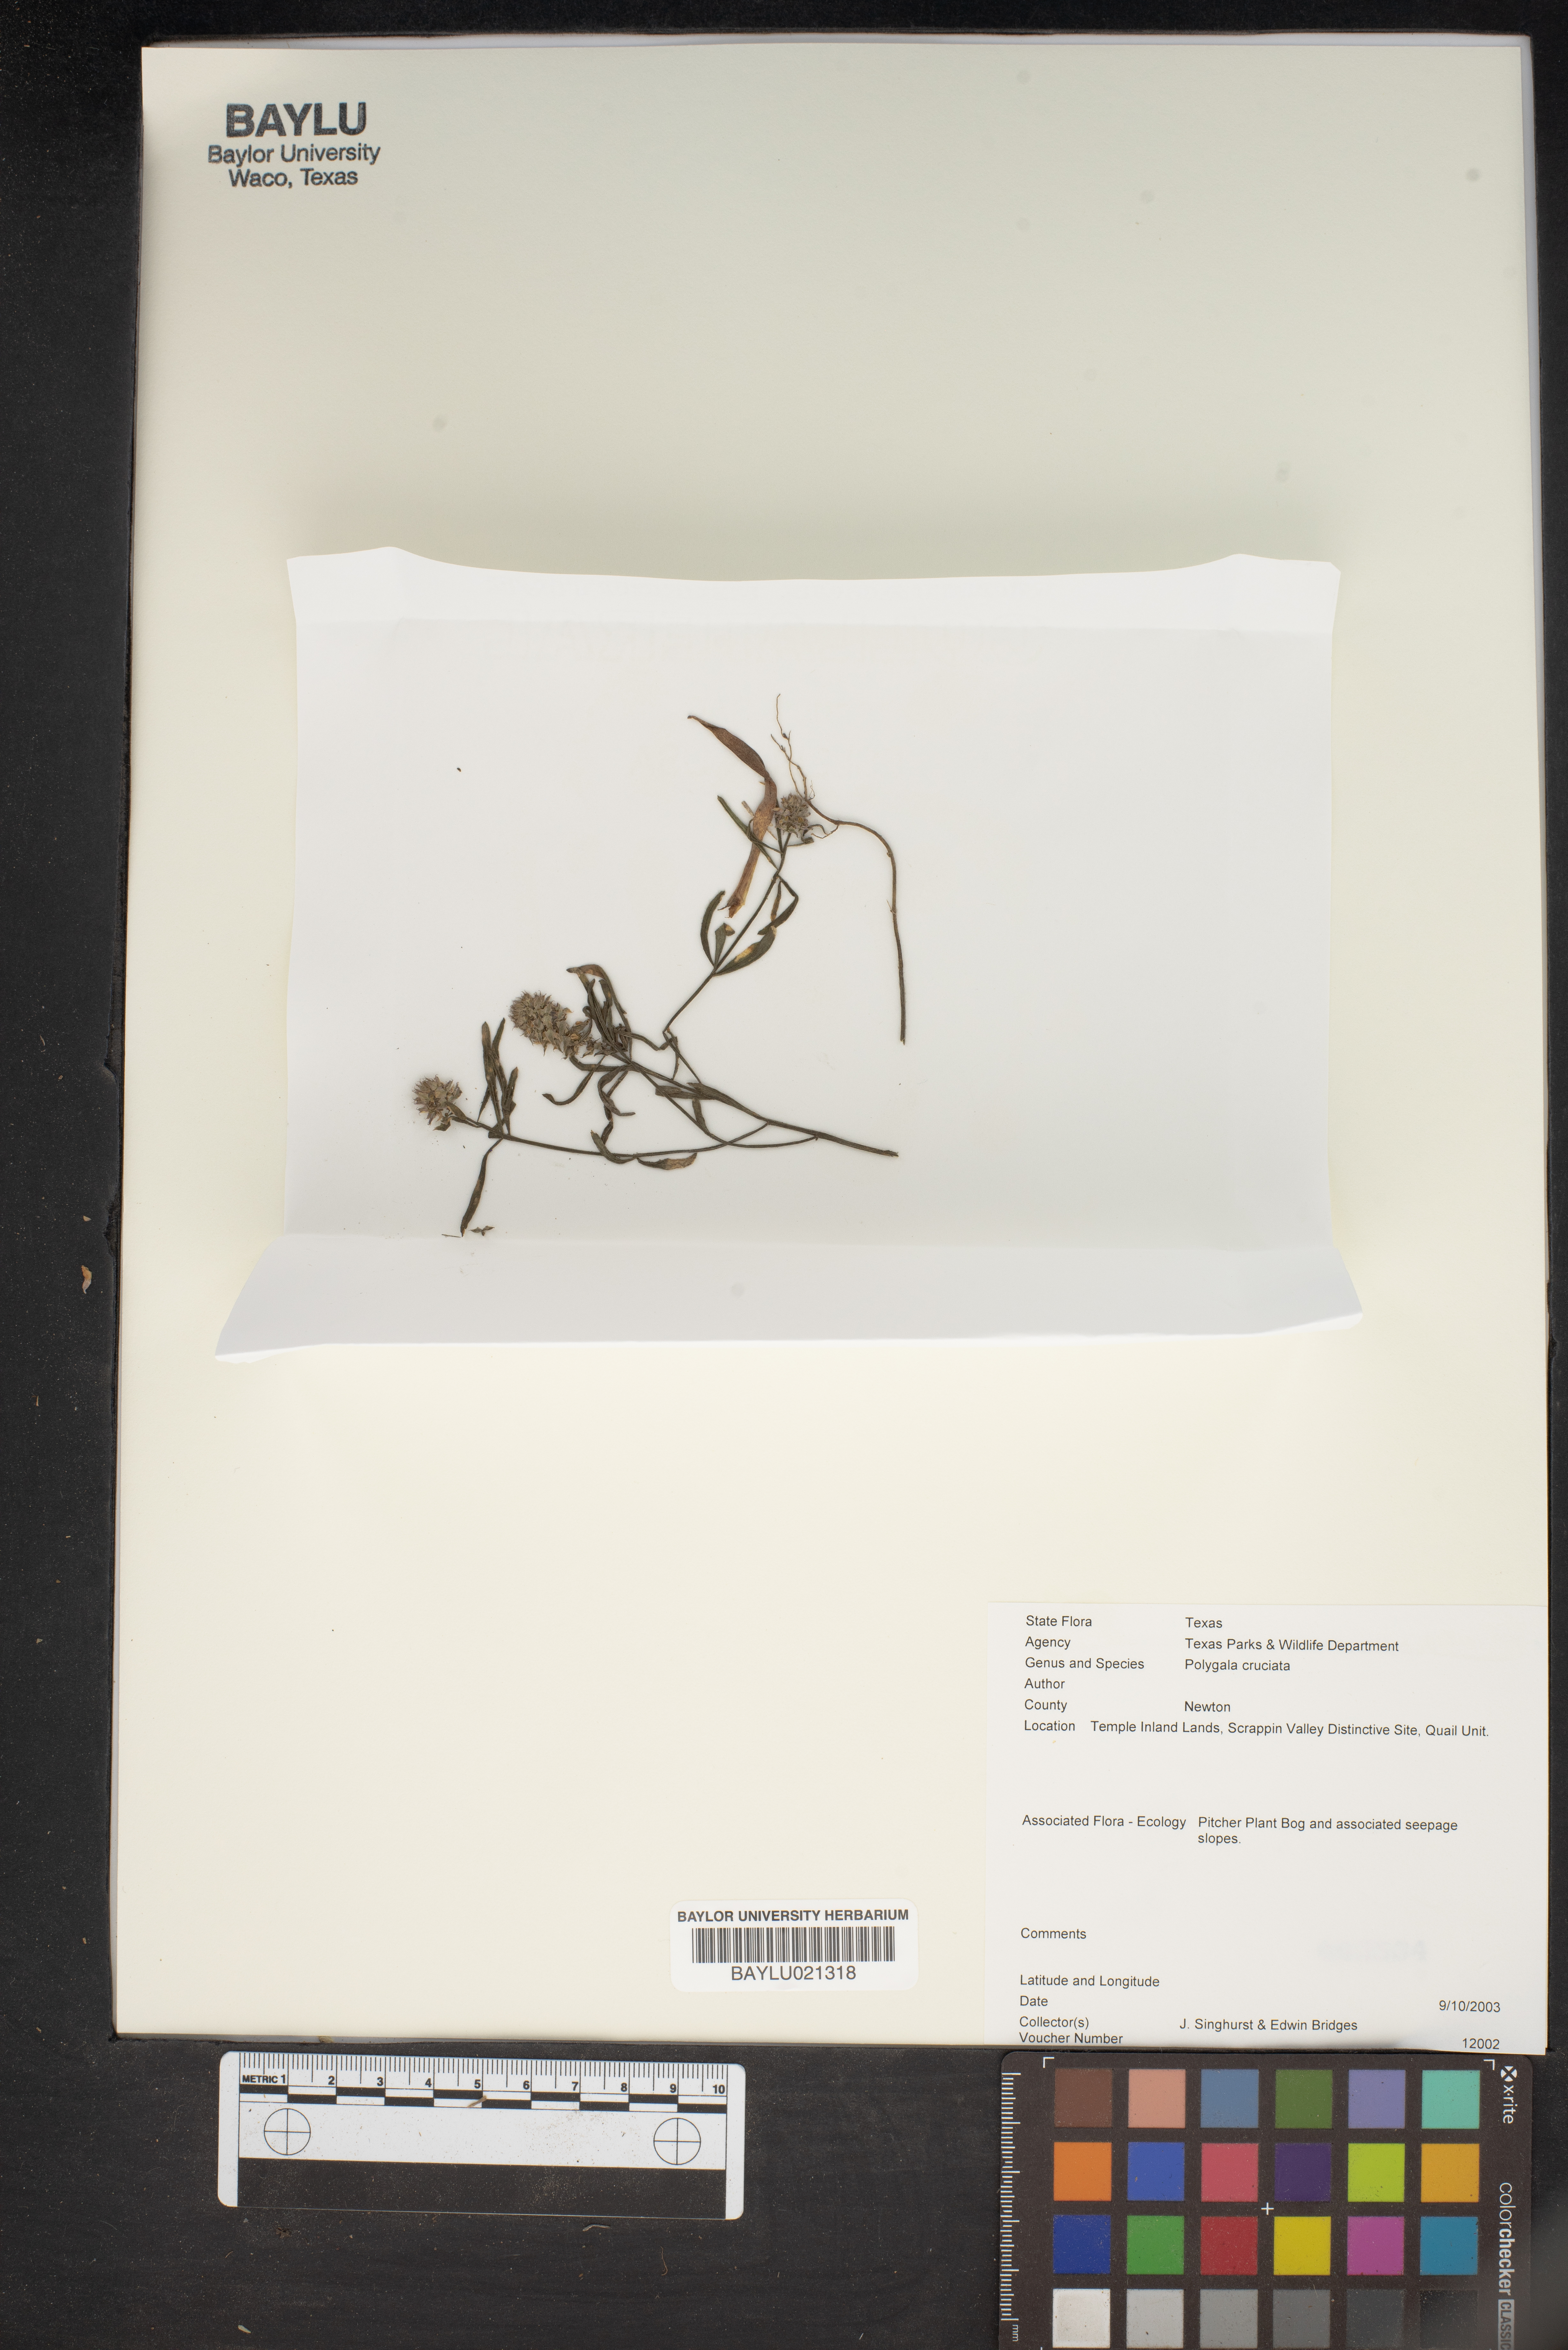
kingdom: Plantae
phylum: Tracheophyta
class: Magnoliopsida
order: Fabales
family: Polygalaceae
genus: Polygala
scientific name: Polygala cruciata
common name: Drumheads
